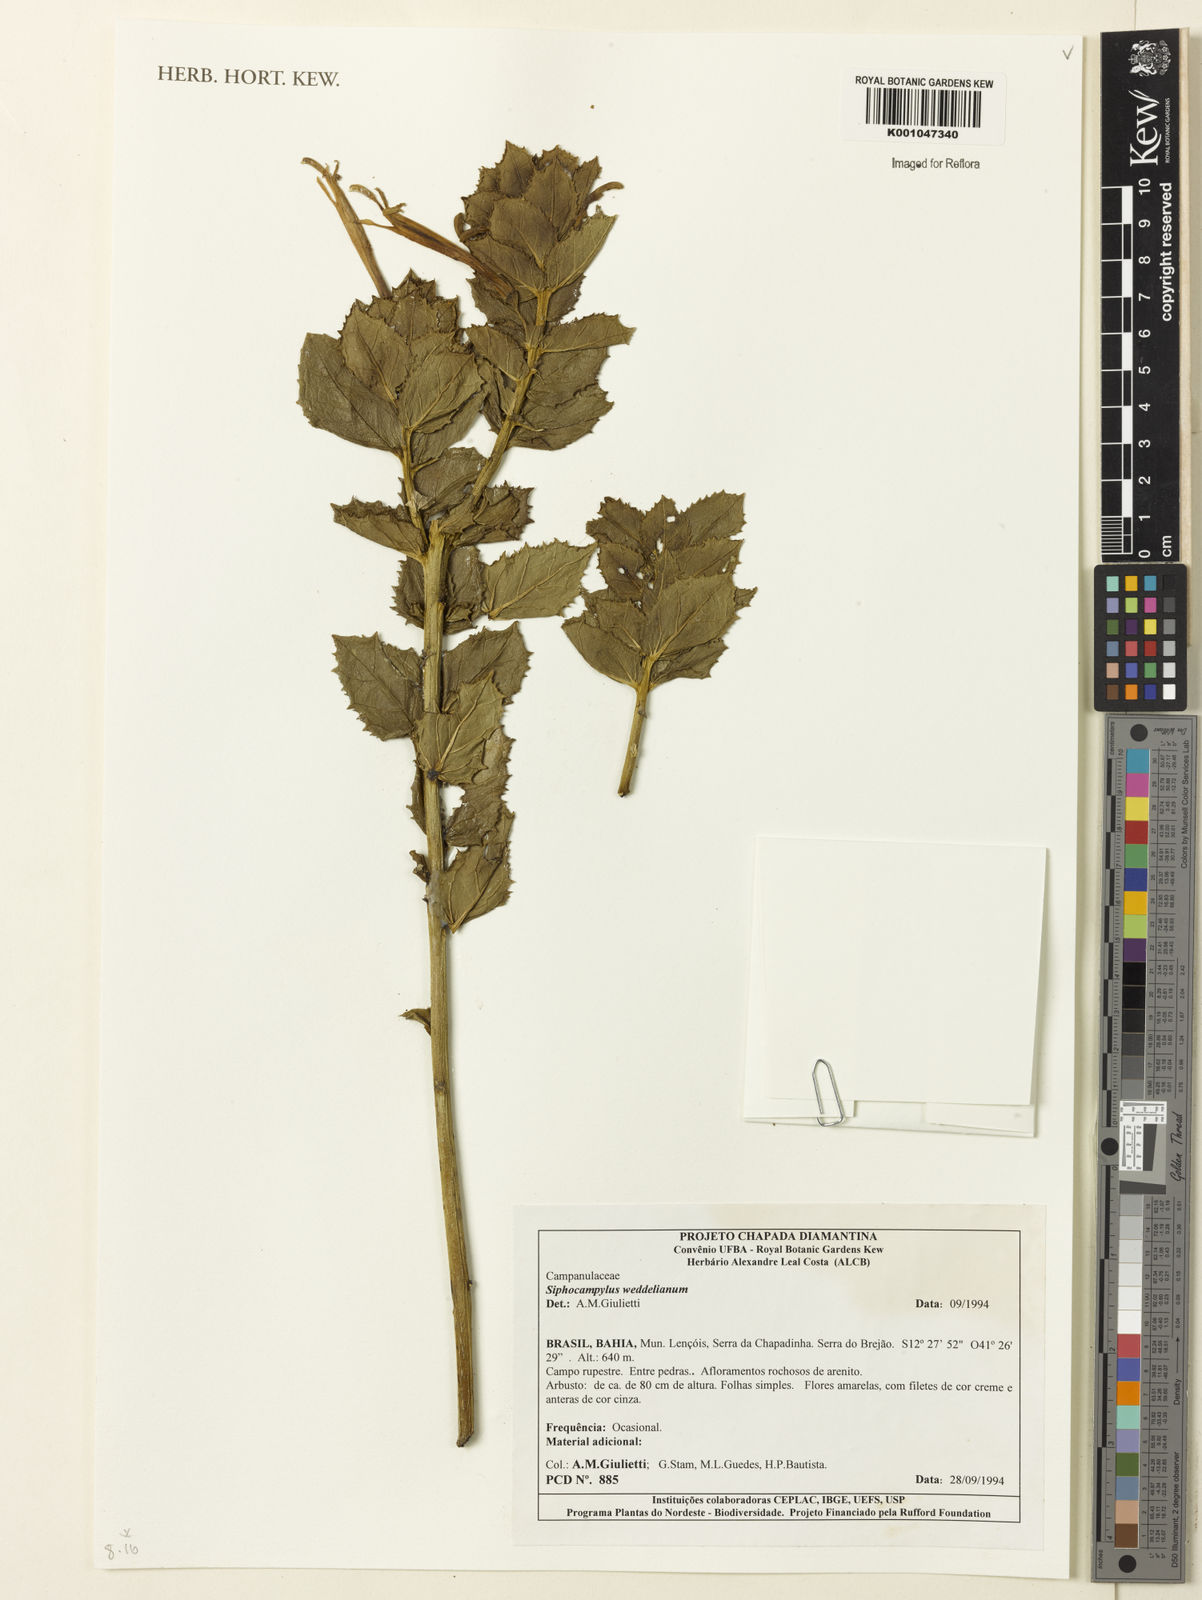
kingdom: Plantae
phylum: Tracheophyta
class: Magnoliopsida
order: Asterales
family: Campanulaceae
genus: Siphocampylus
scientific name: Siphocampylus
